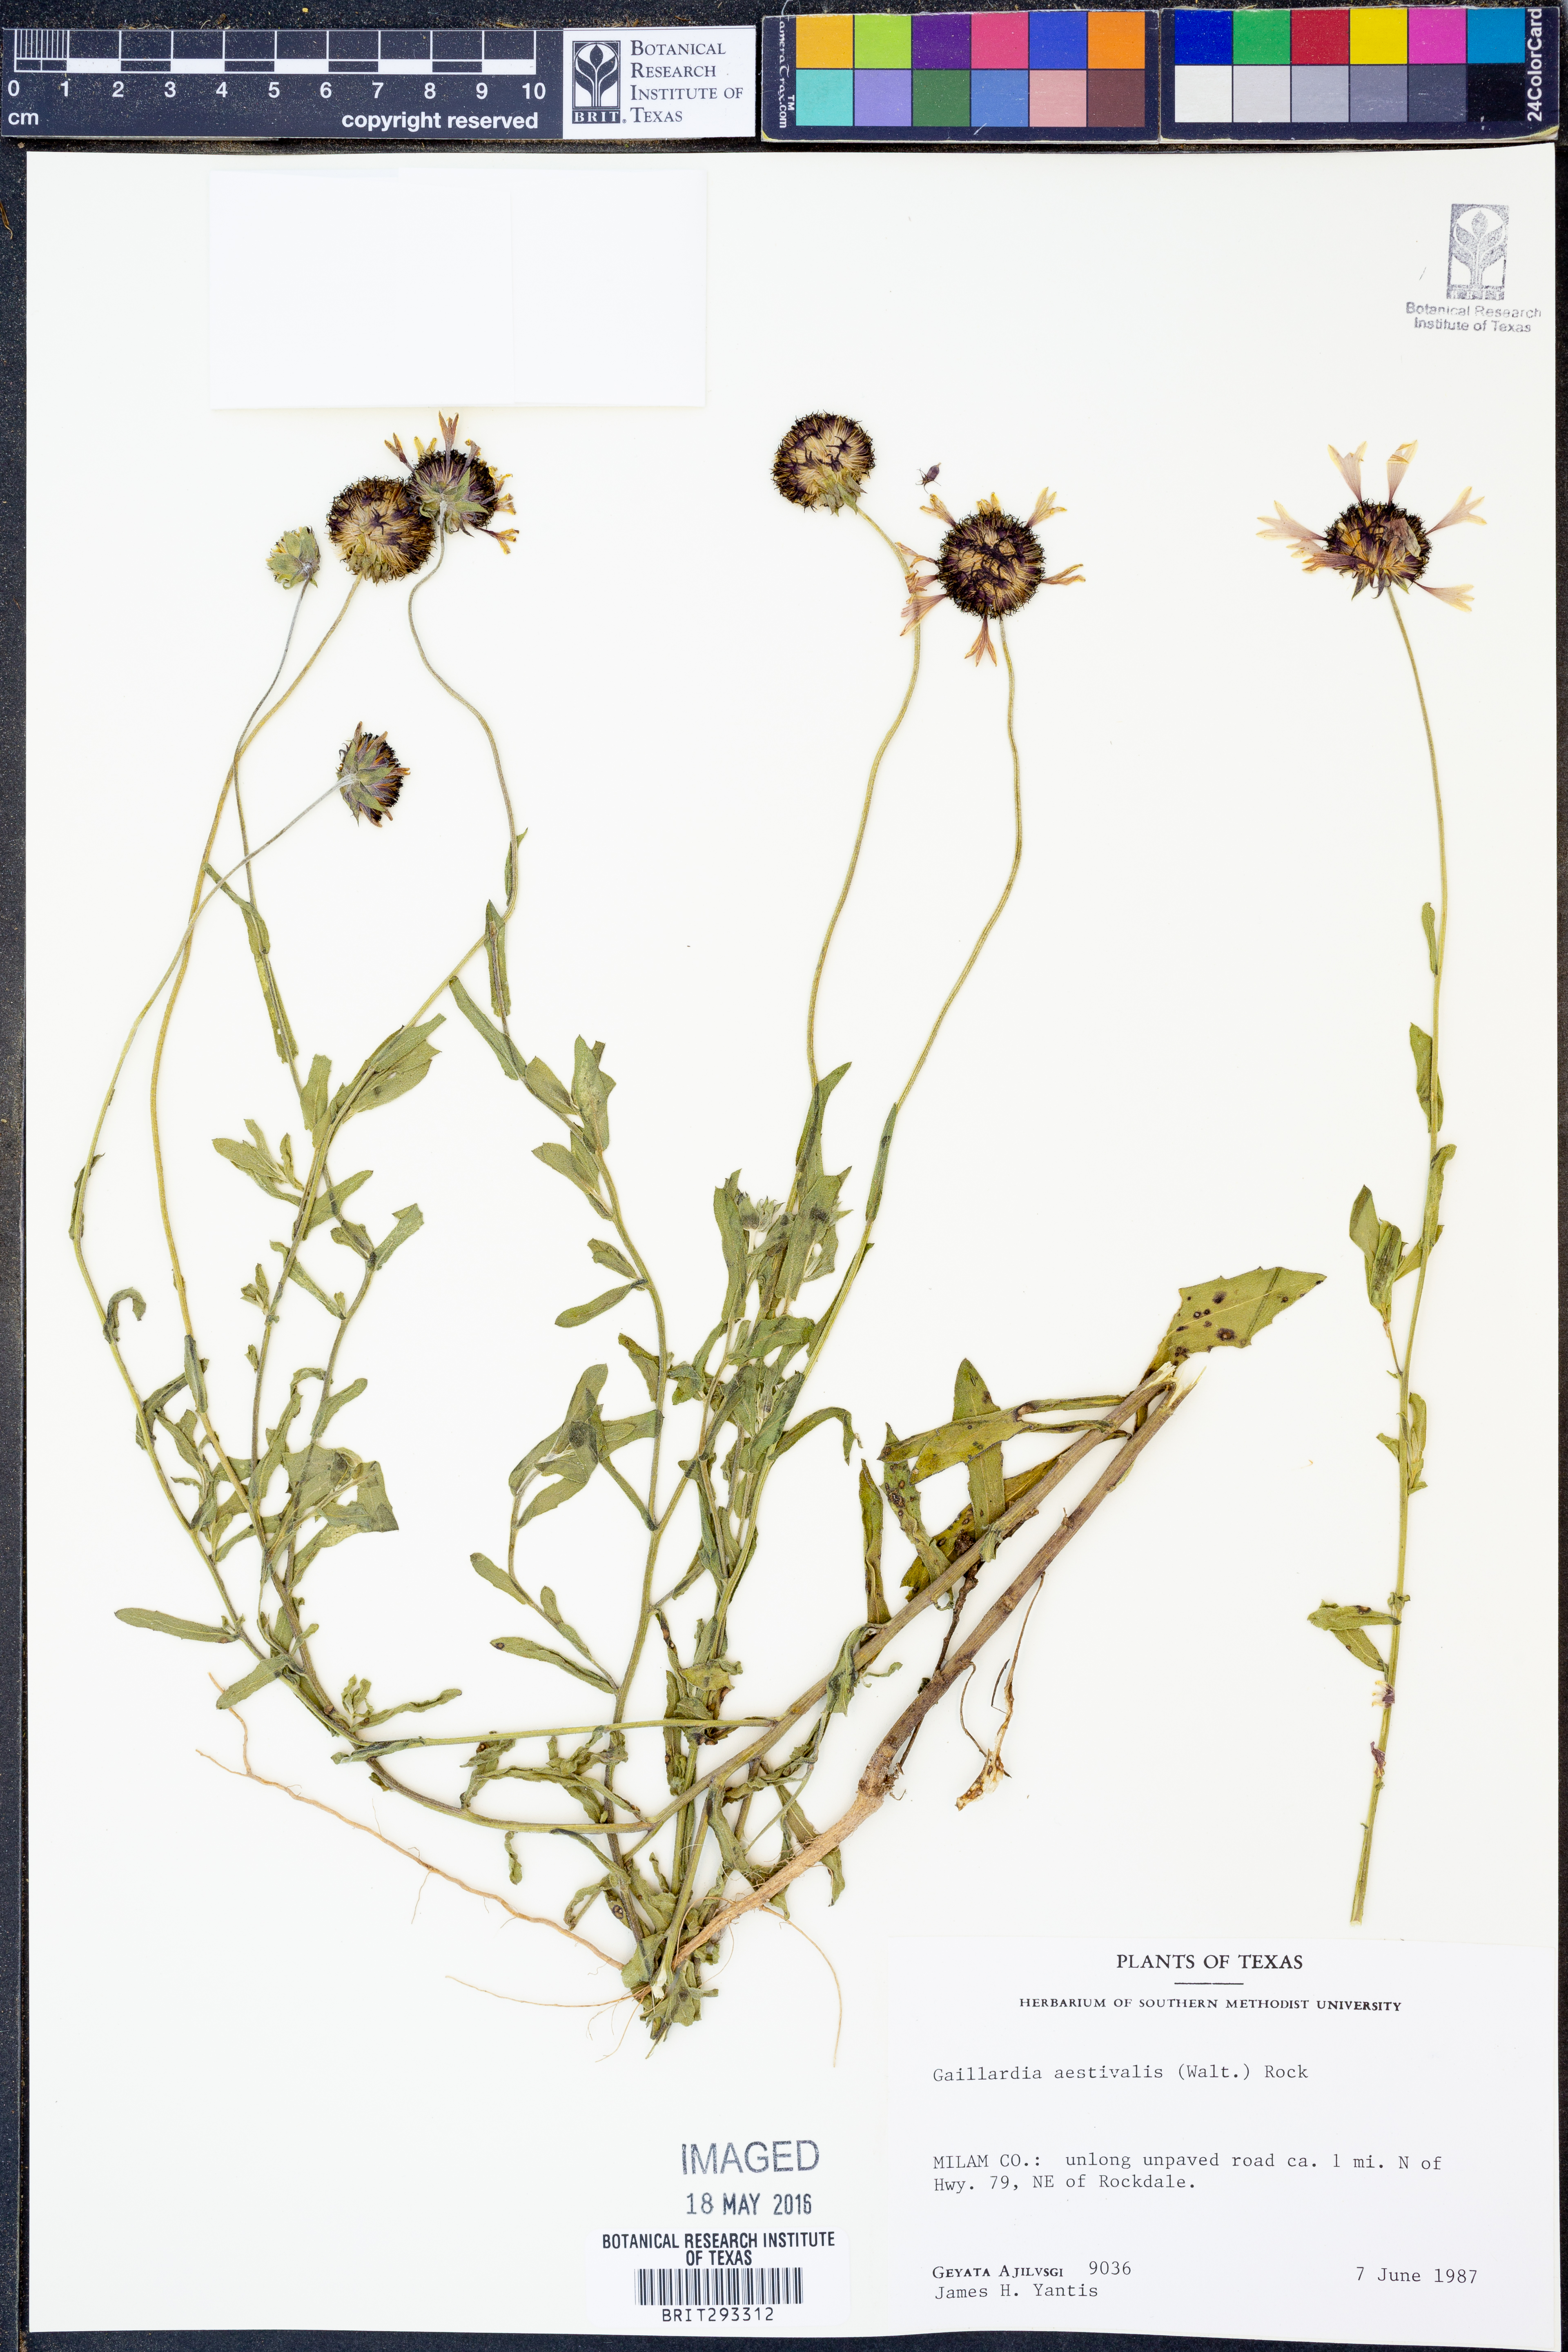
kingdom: Plantae
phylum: Tracheophyta
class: Magnoliopsida
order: Asterales
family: Asteraceae
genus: Gaillardia
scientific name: Gaillardia aestivalis
